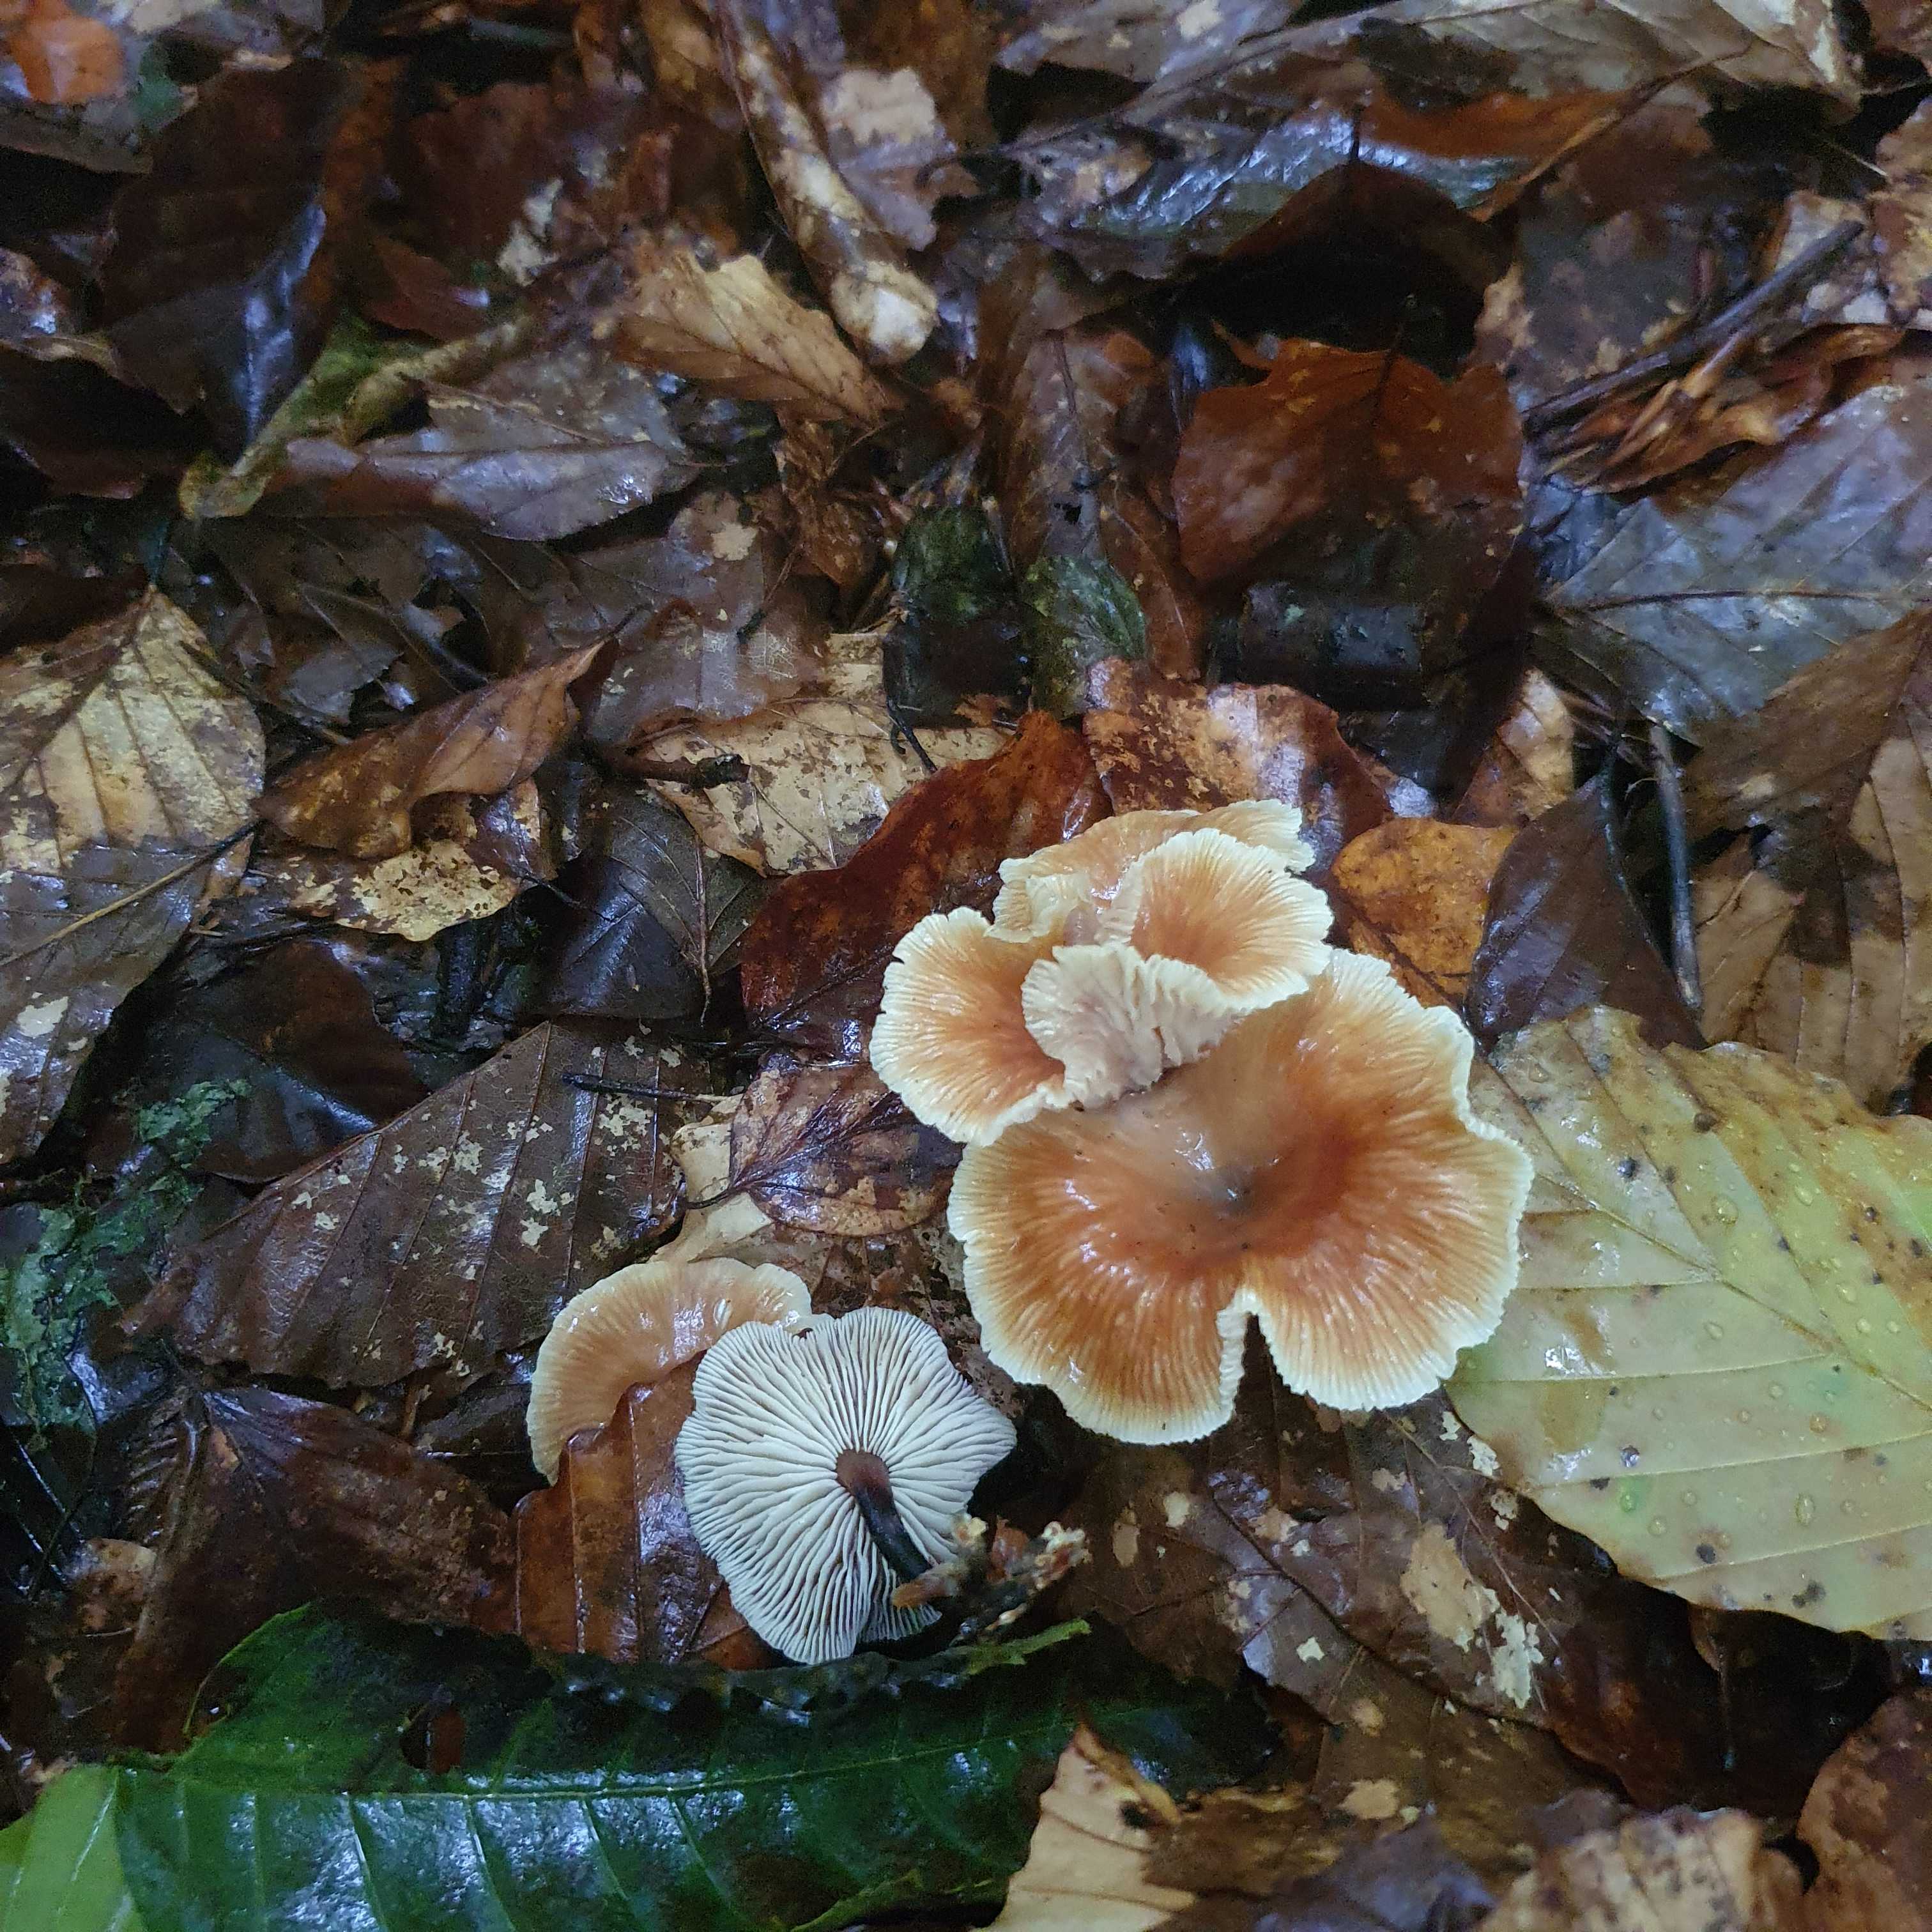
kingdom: Fungi
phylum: Basidiomycota
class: Agaricomycetes
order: Agaricales
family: Omphalotaceae
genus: Gymnopus
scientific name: Gymnopus brassicolens
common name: kål-fladhat
